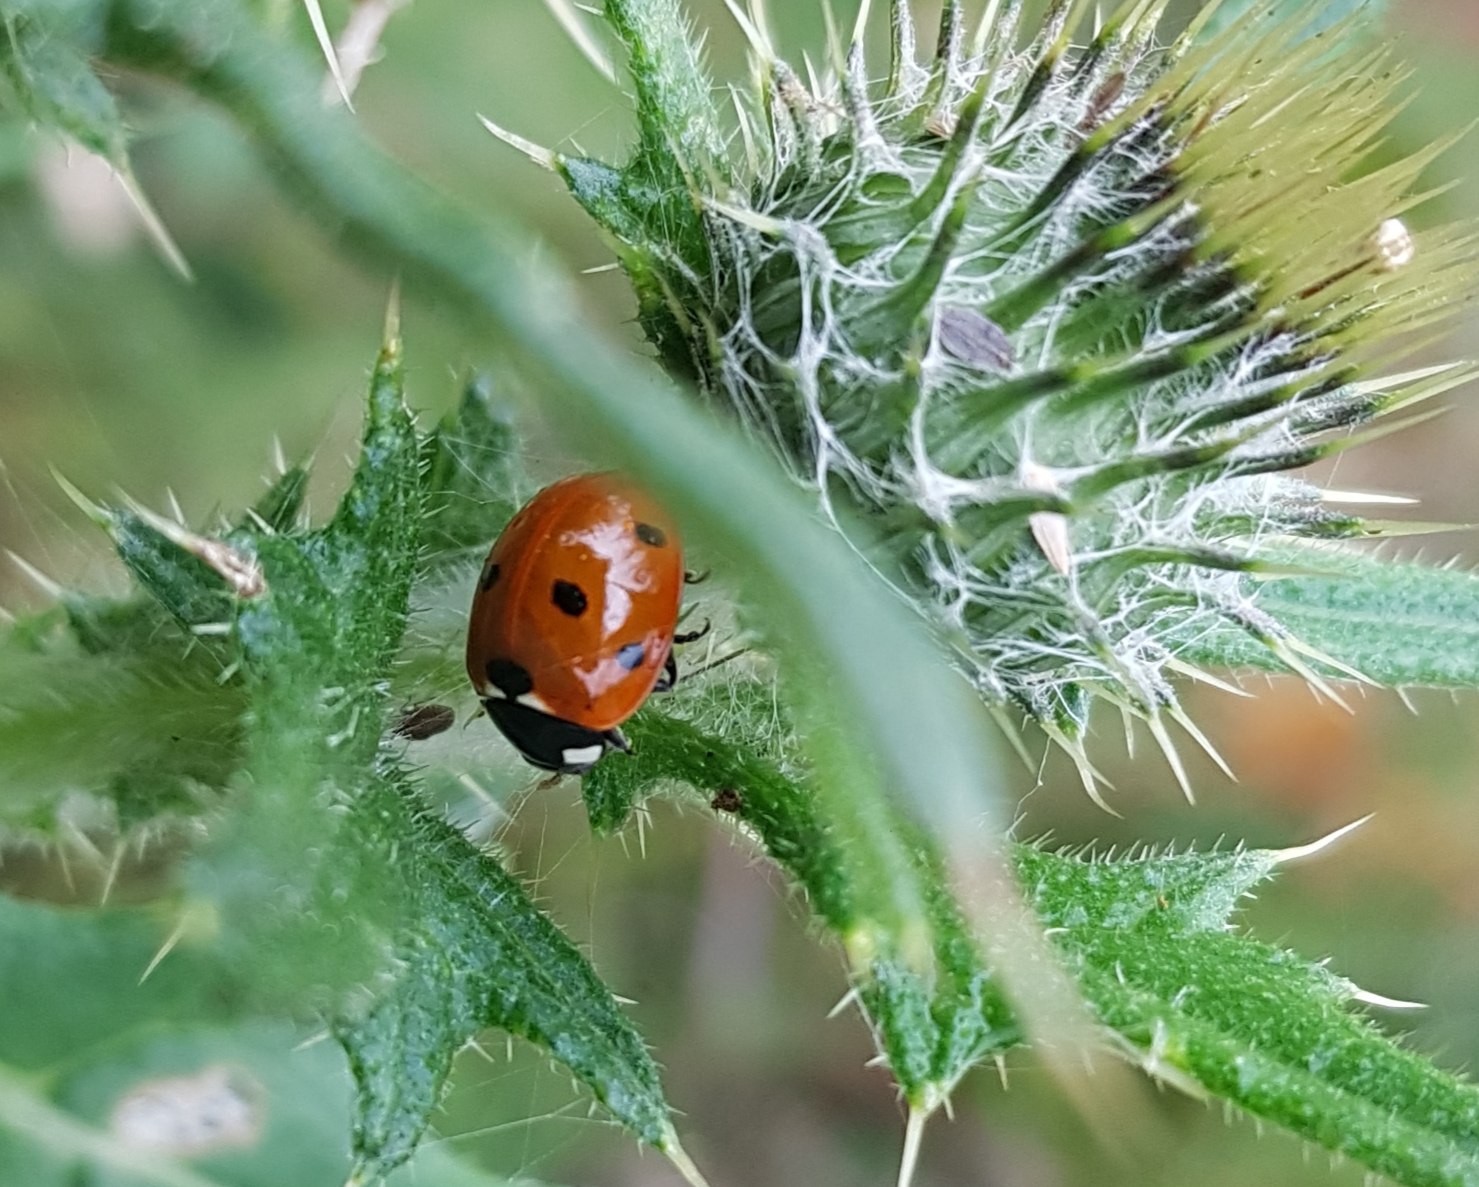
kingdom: Animalia
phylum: Arthropoda
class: Insecta
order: Coleoptera
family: Coccinellidae
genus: Coccinella
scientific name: Coccinella septempunctata
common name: Syvplettet mariehøne
